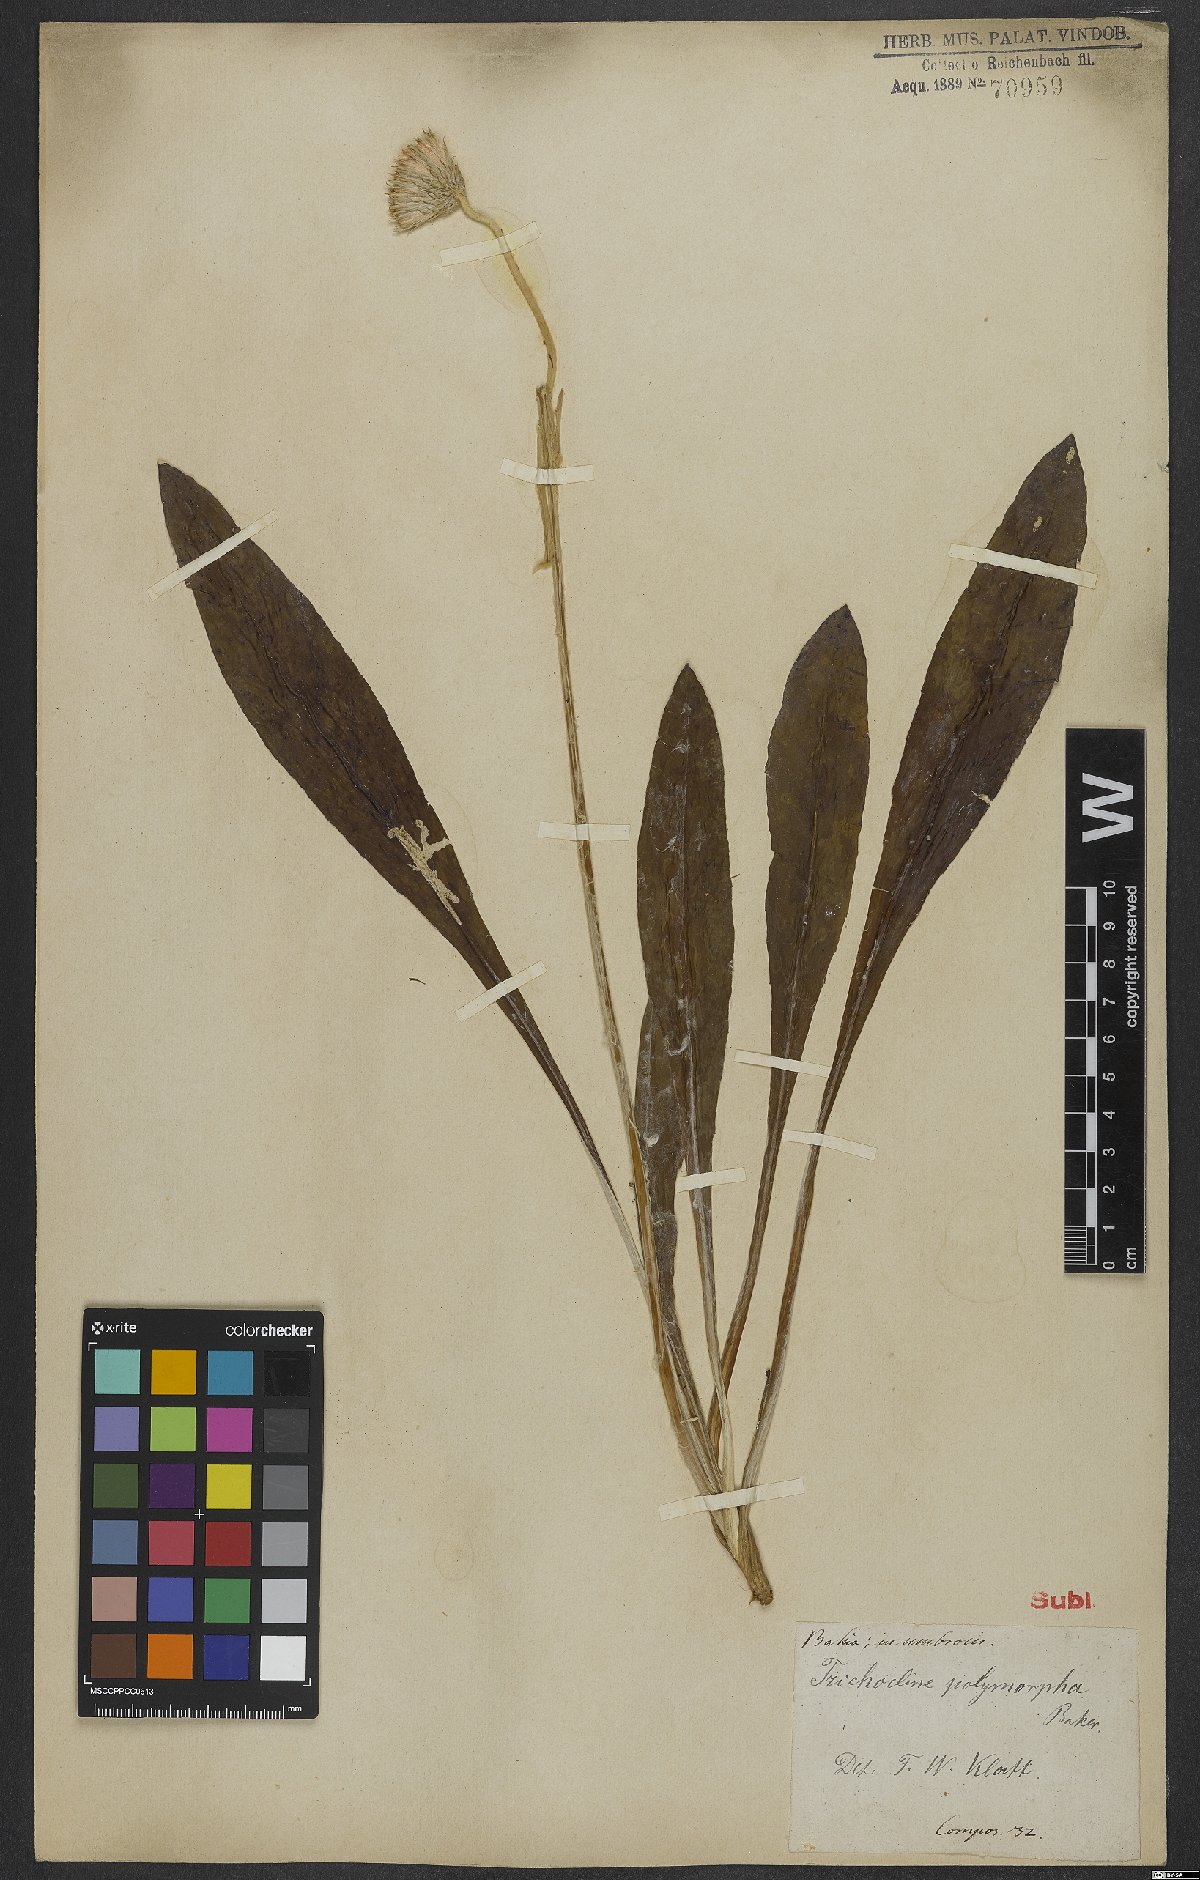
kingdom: Plantae
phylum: Tracheophyta
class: Magnoliopsida
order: Asterales
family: Asteraceae
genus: Richterago
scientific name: Richterago polymorpha
